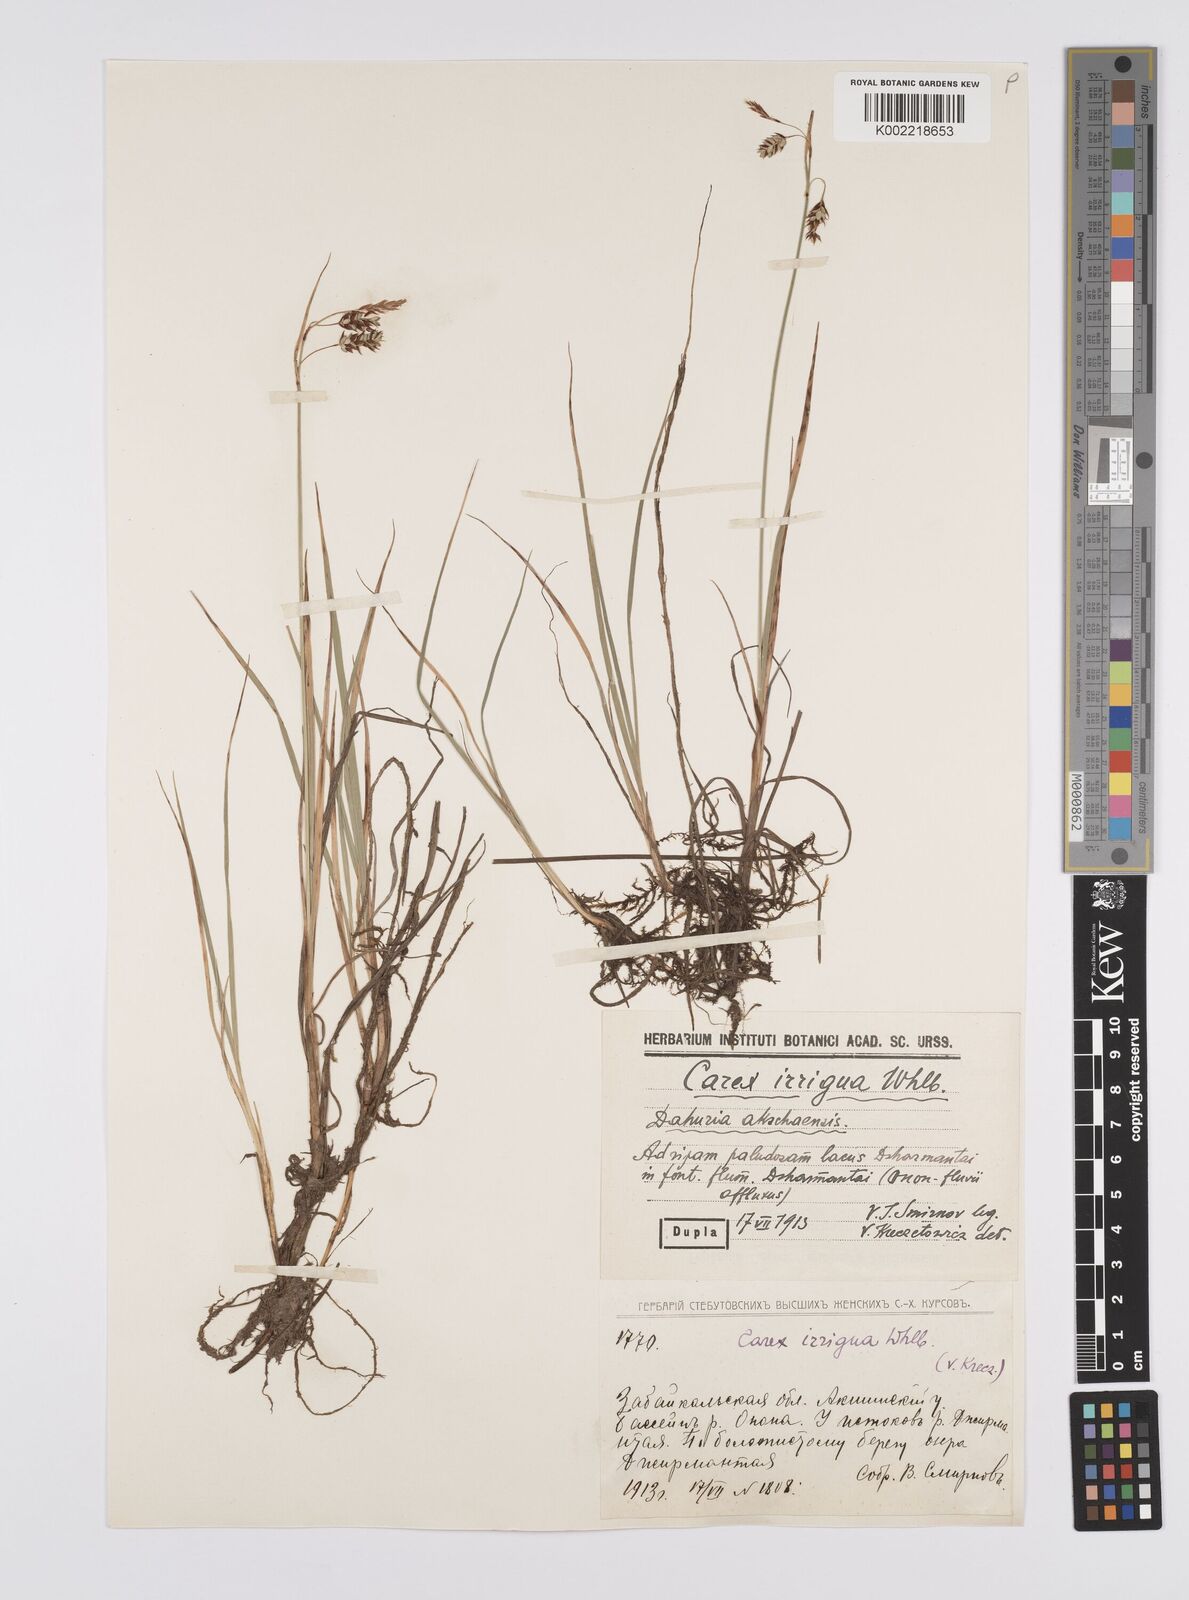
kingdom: Plantae
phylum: Tracheophyta
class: Liliopsida
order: Poales
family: Cyperaceae
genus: Carex
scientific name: Carex magellanica
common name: Bog sedge
